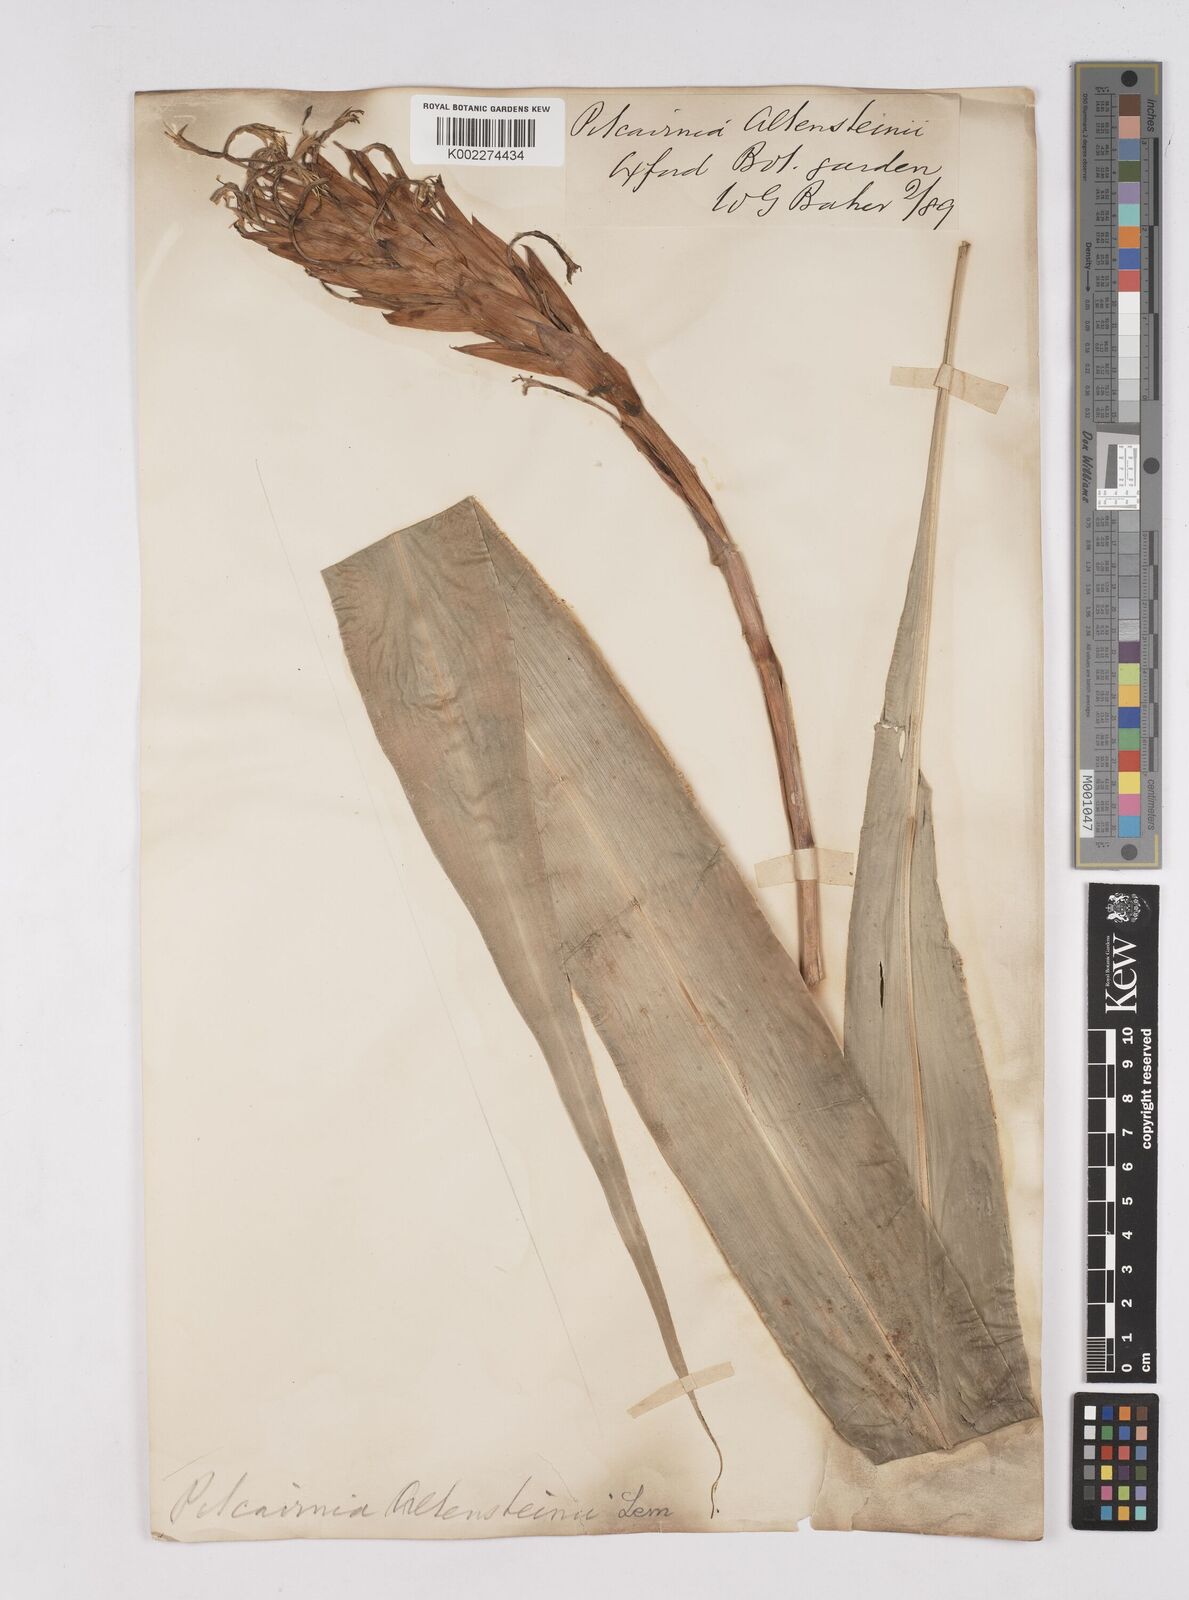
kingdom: Plantae
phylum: Tracheophyta
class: Liliopsida
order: Poales
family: Bromeliaceae
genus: Pitcairnia
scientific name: Pitcairnia altensteinii
